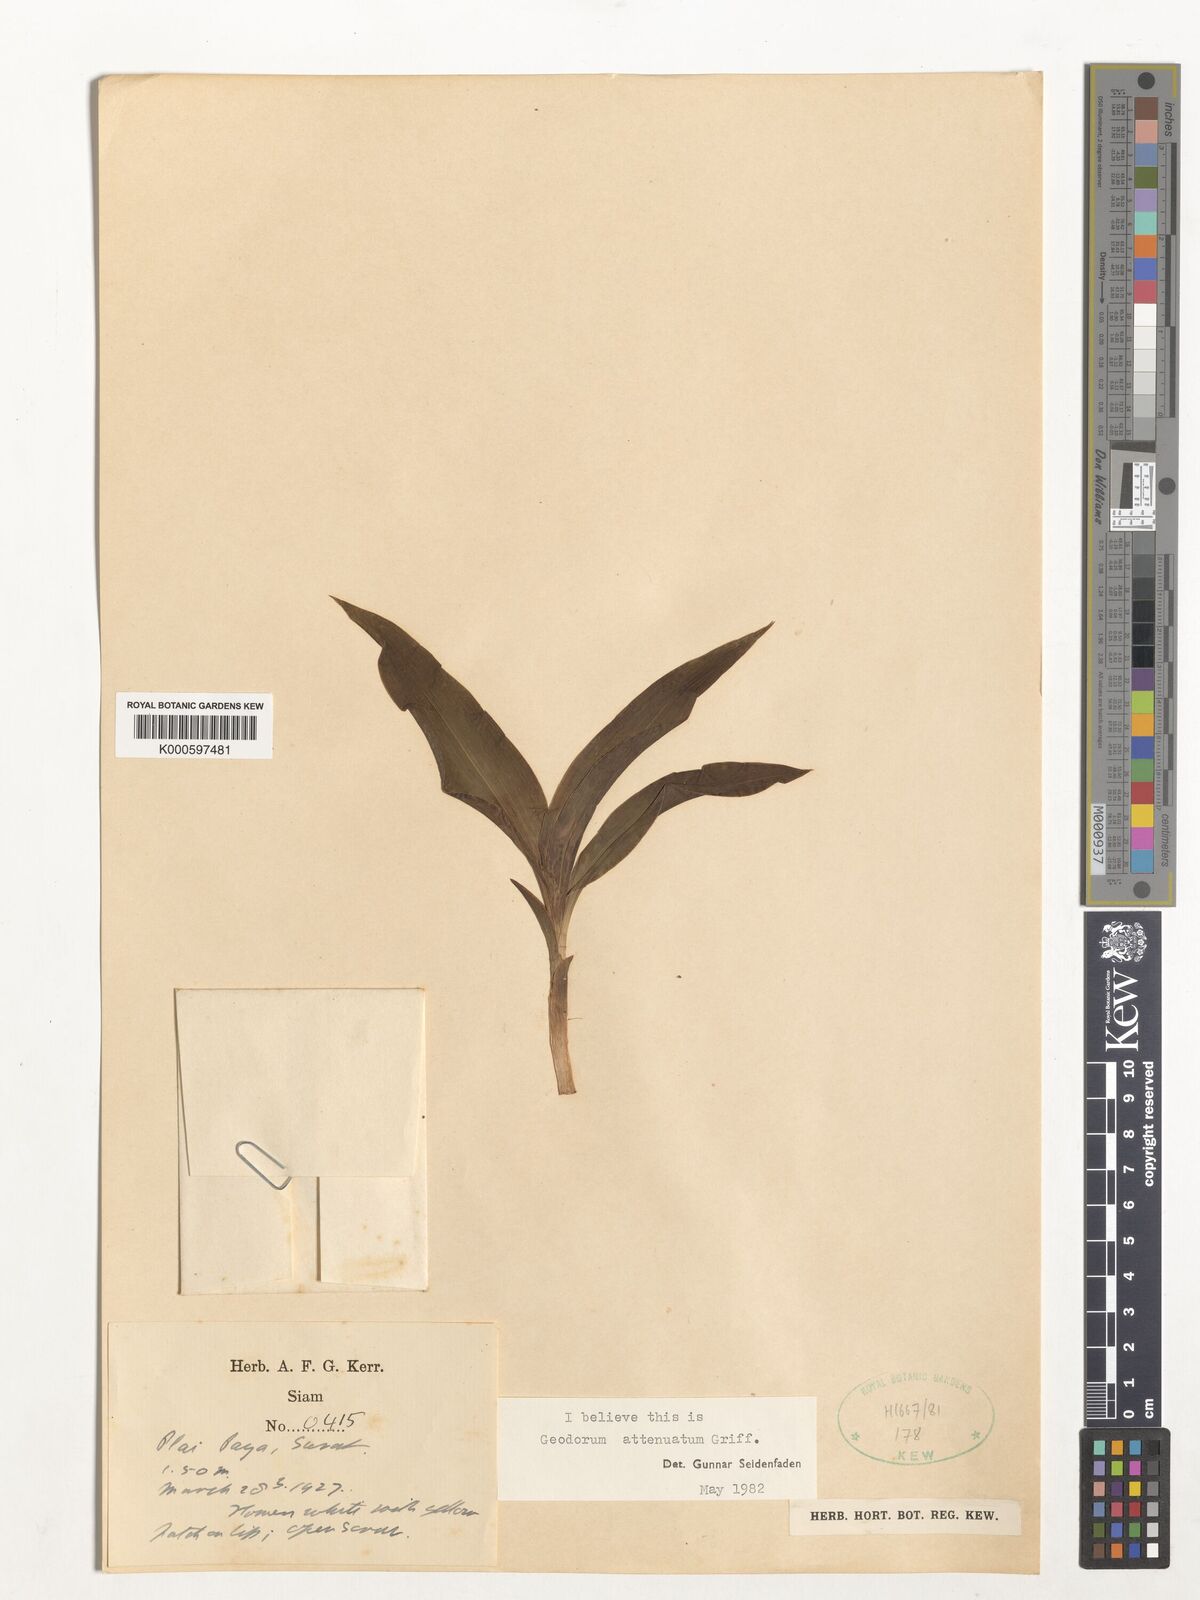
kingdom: Plantae
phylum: Tracheophyta
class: Liliopsida
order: Asparagales
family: Orchidaceae
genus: Eulophia
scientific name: Eulophia attenuata
